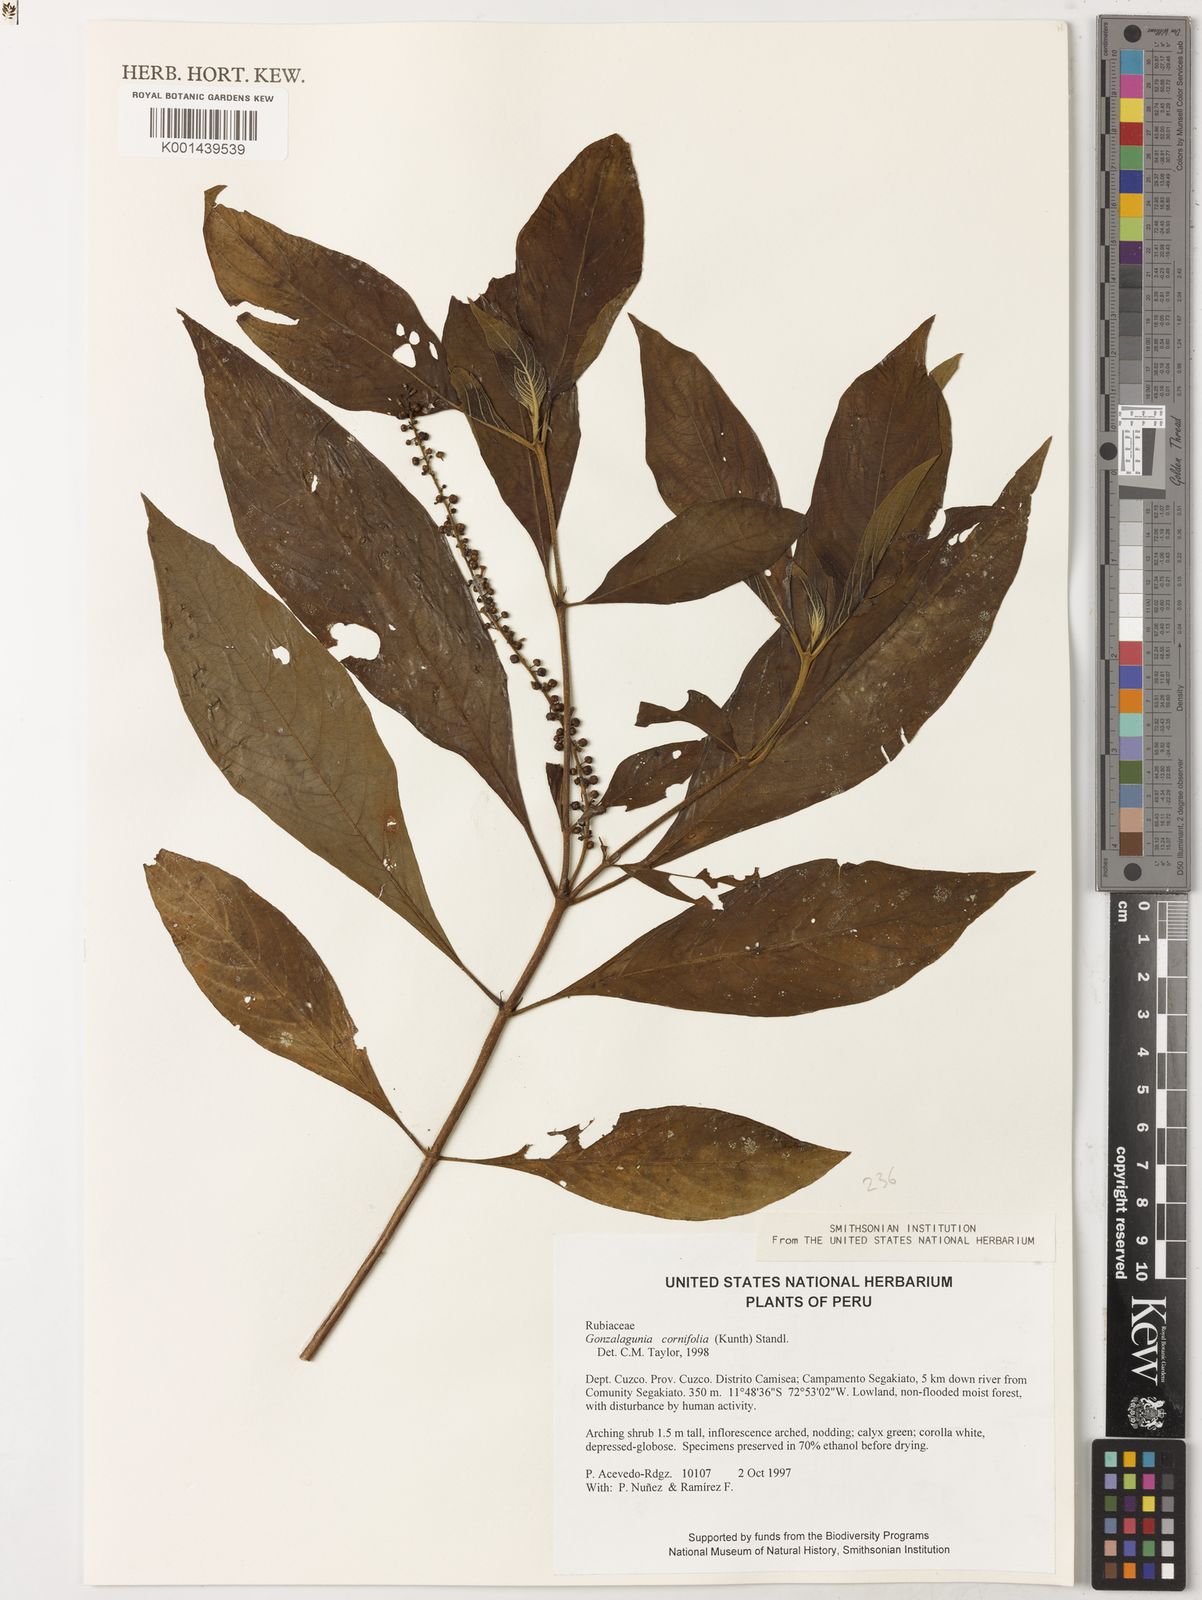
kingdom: Plantae
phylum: Tracheophyta
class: Magnoliopsida
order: Gentianales
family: Rubiaceae
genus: Gonzalagunia
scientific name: Gonzalagunia cornifolia
